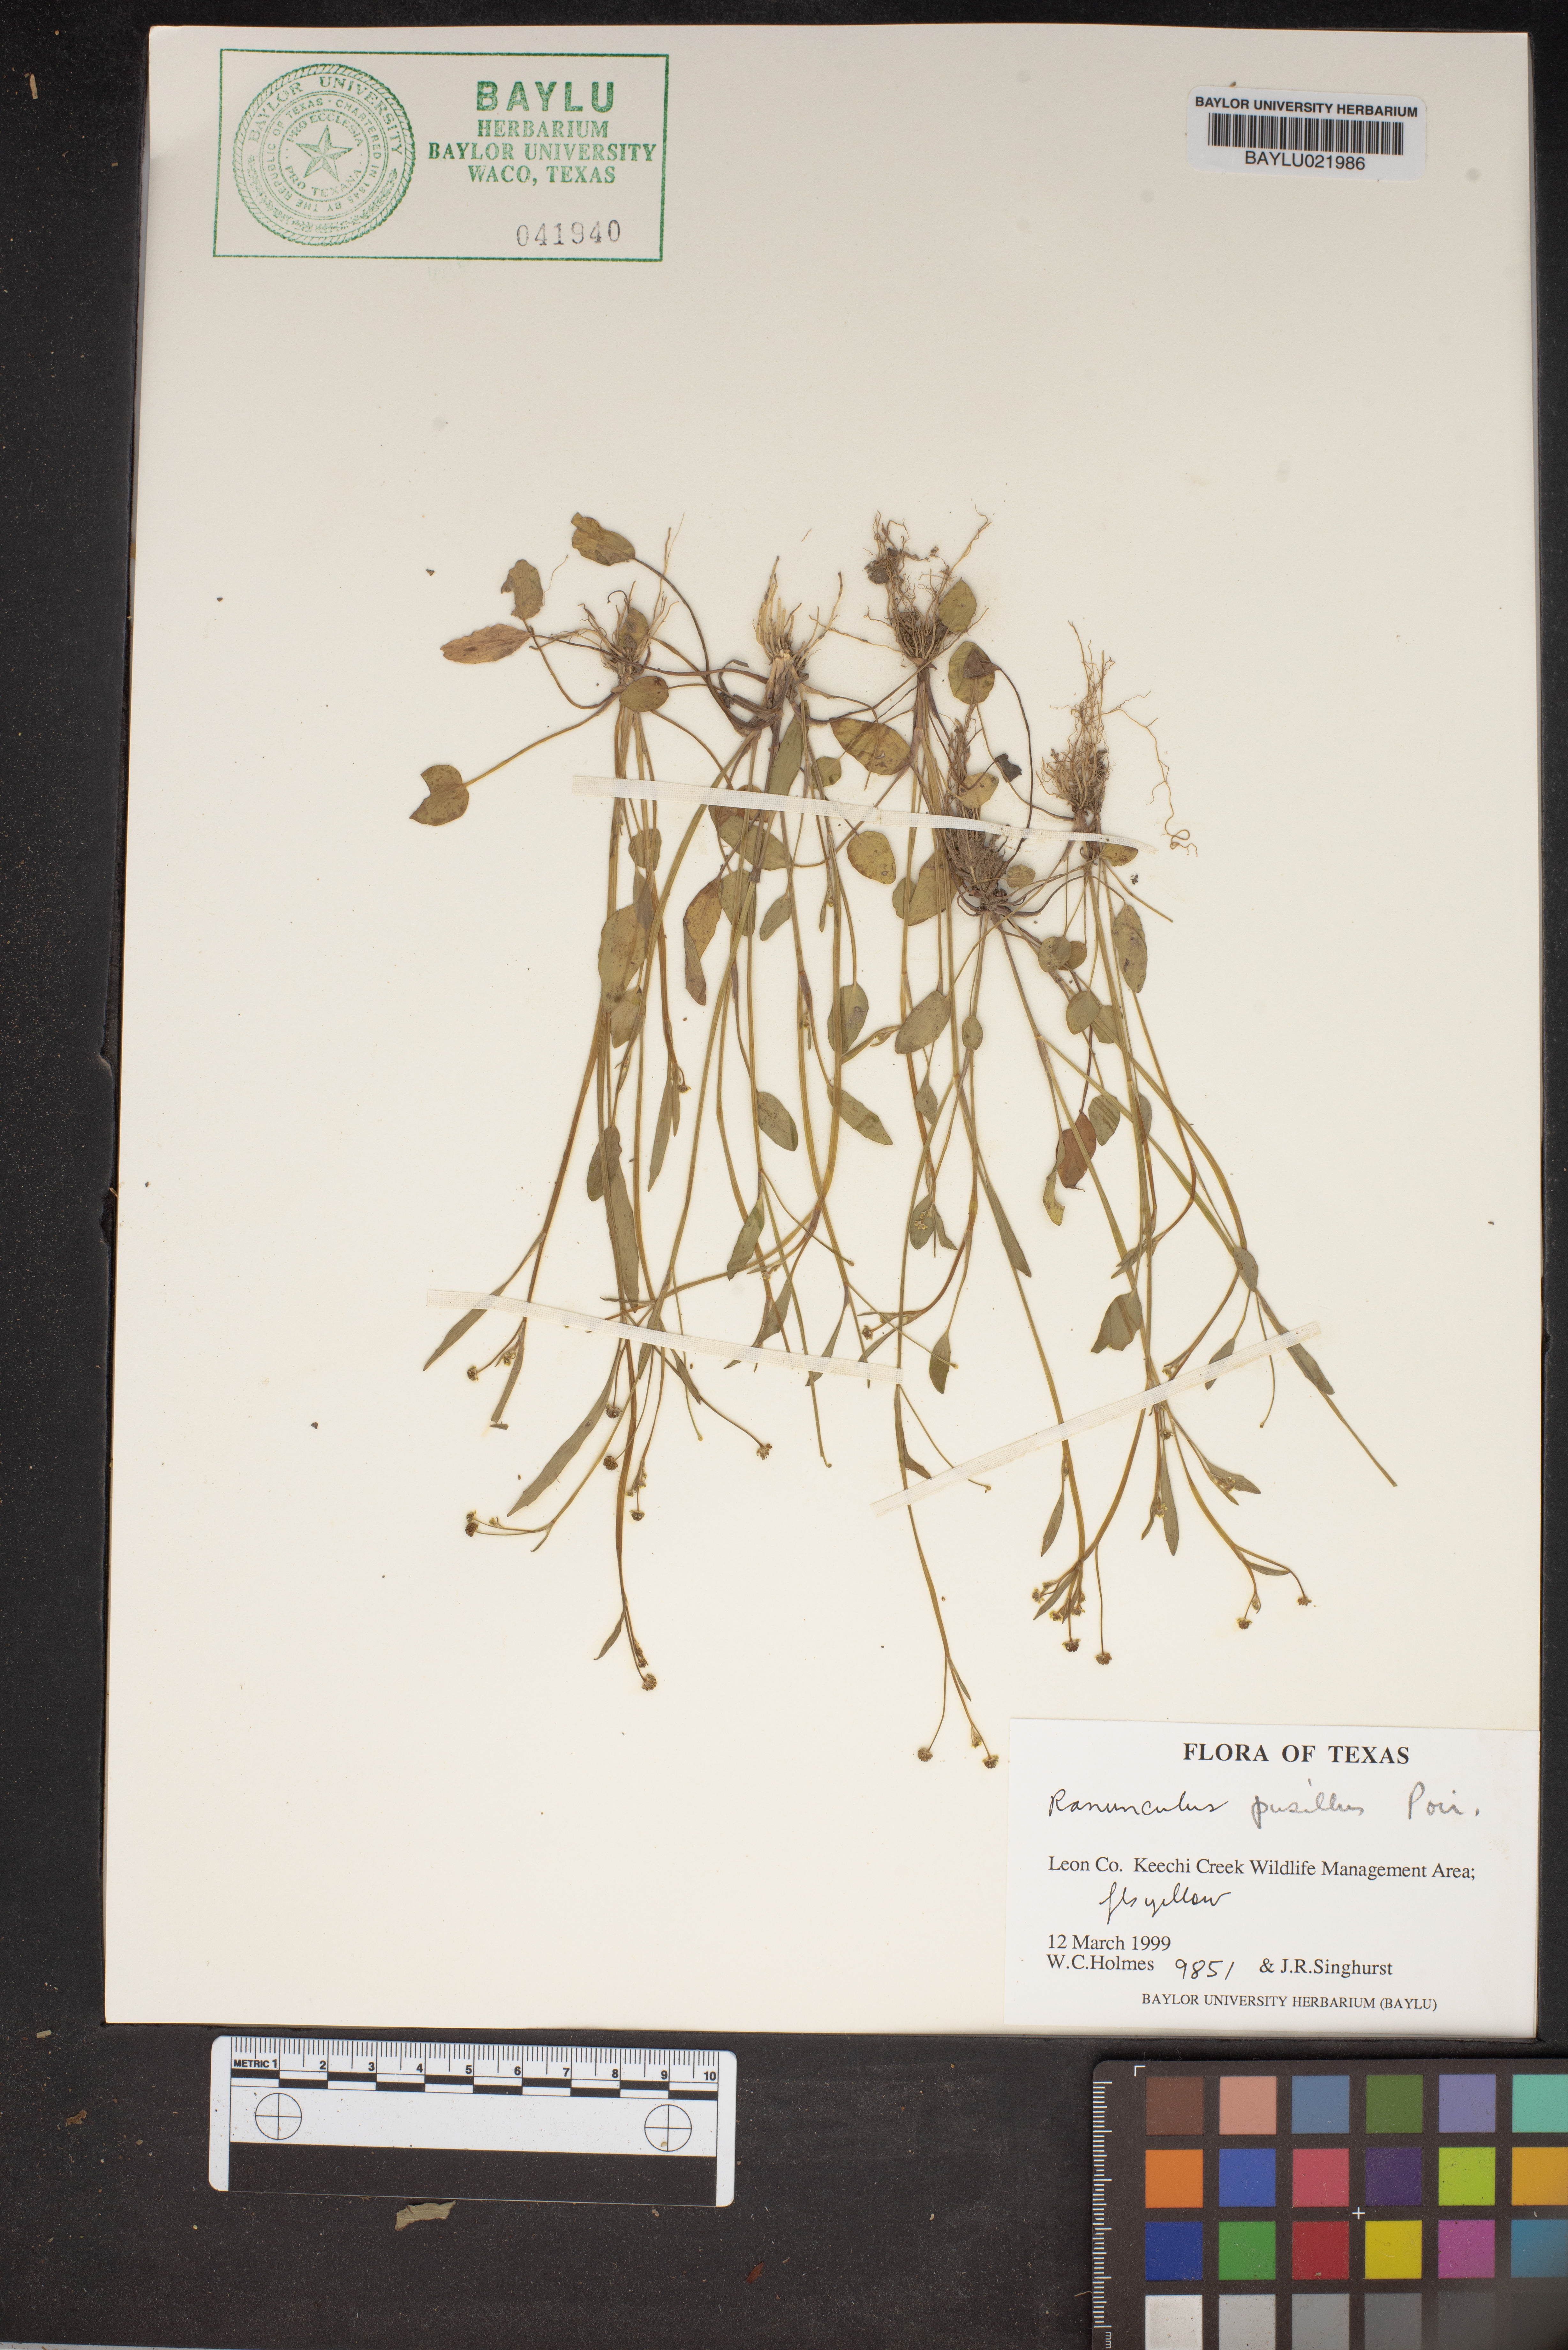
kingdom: Plantae
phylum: Tracheophyta
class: Magnoliopsida
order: Ranunculales
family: Ranunculaceae
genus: Ranunculus
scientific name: Ranunculus pusillus
